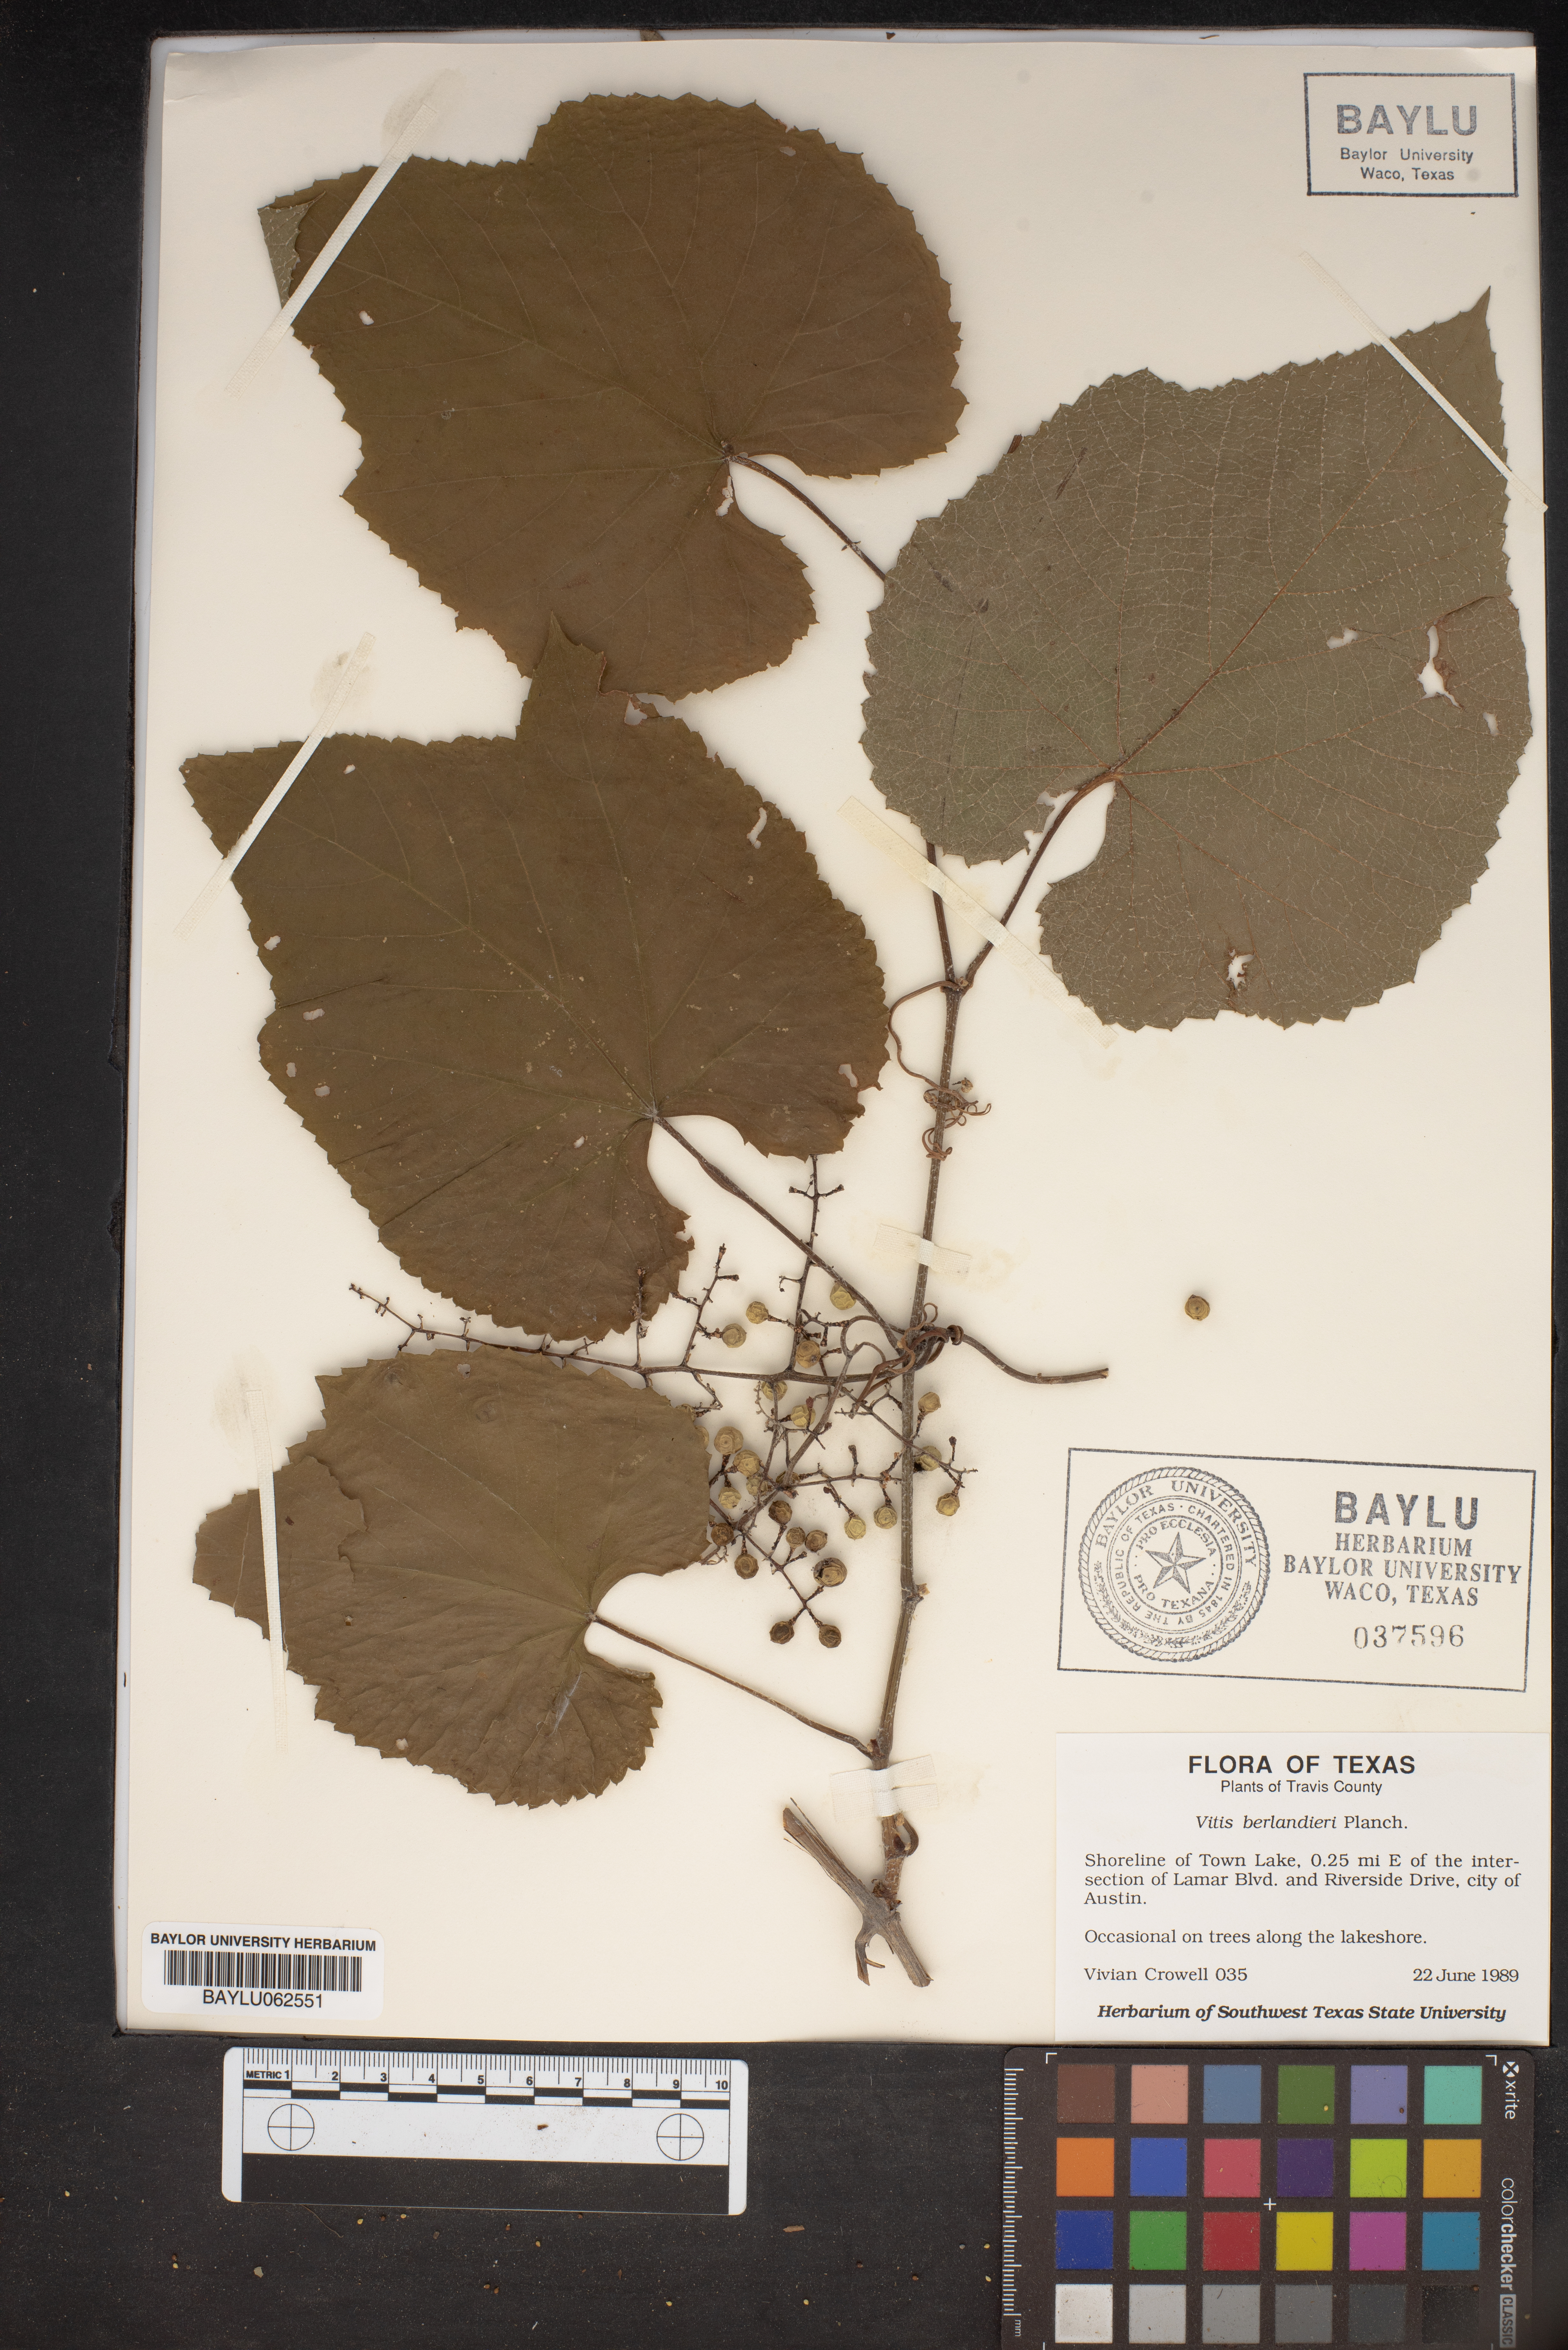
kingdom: Plantae
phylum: Tracheophyta
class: Magnoliopsida
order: Vitales
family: Vitaceae
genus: Vitis
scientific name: Vitis cinerea
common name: Ashy grape
